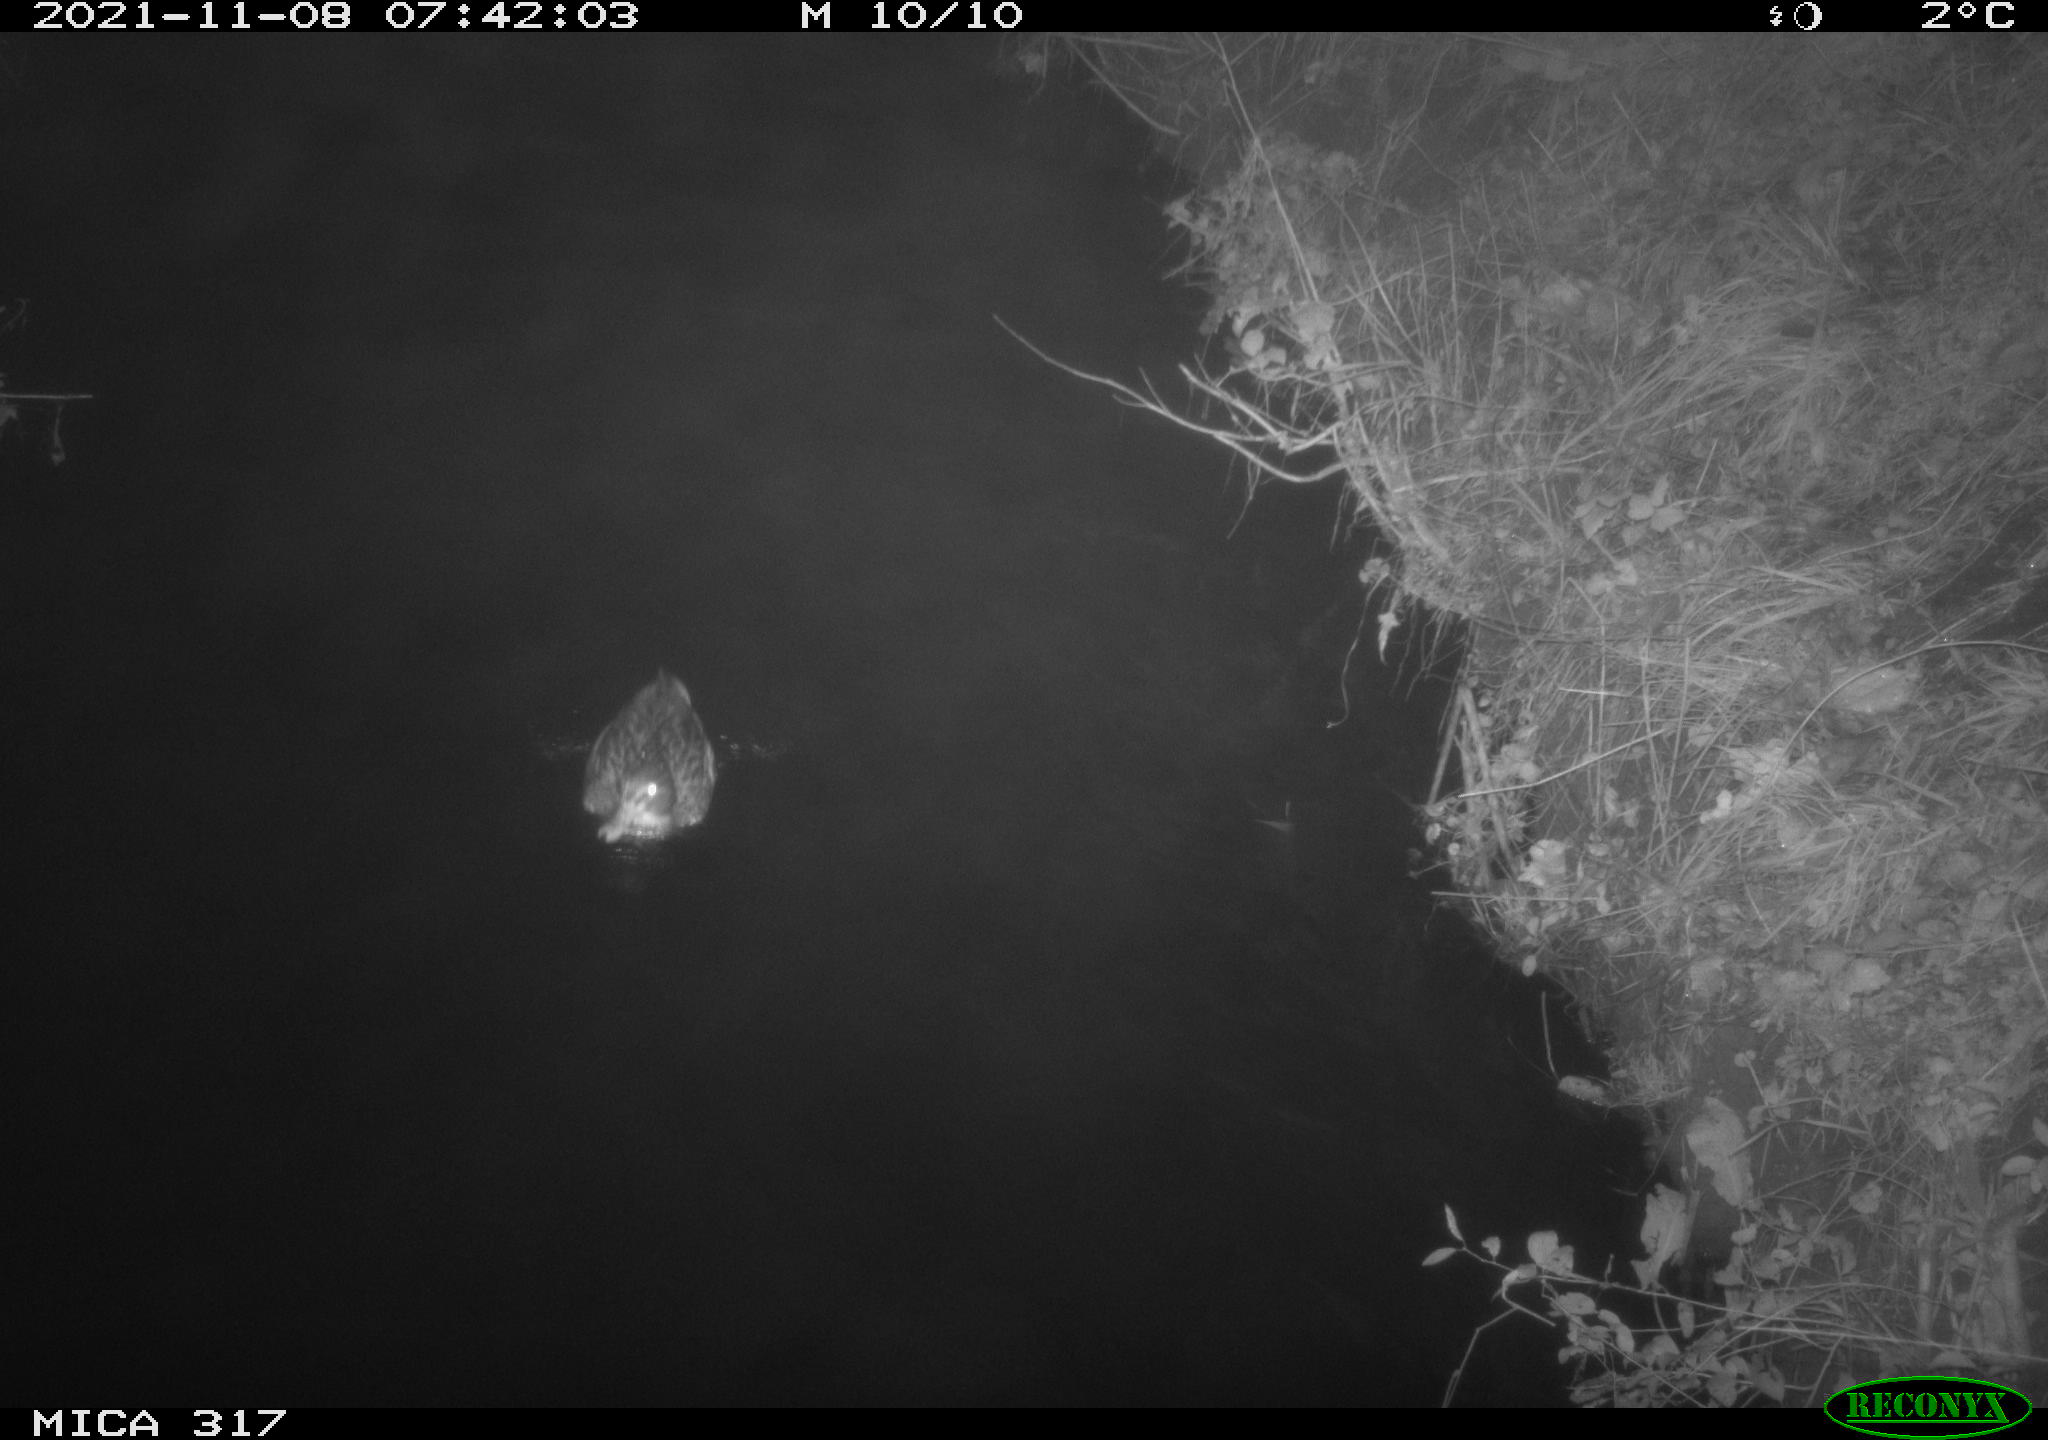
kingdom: Animalia
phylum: Chordata
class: Aves
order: Anseriformes
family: Anatidae
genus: Anas
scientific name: Anas platyrhynchos
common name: Mallard
